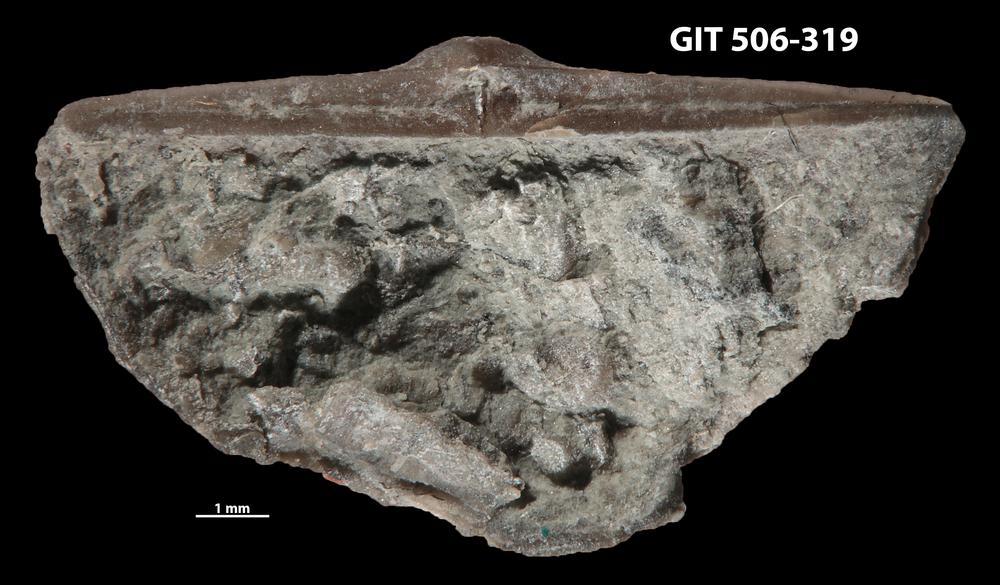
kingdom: Animalia
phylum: Brachiopoda
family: Oldhaminidae
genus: Eoplectodonta
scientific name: Eoplectodonta penkillensis
